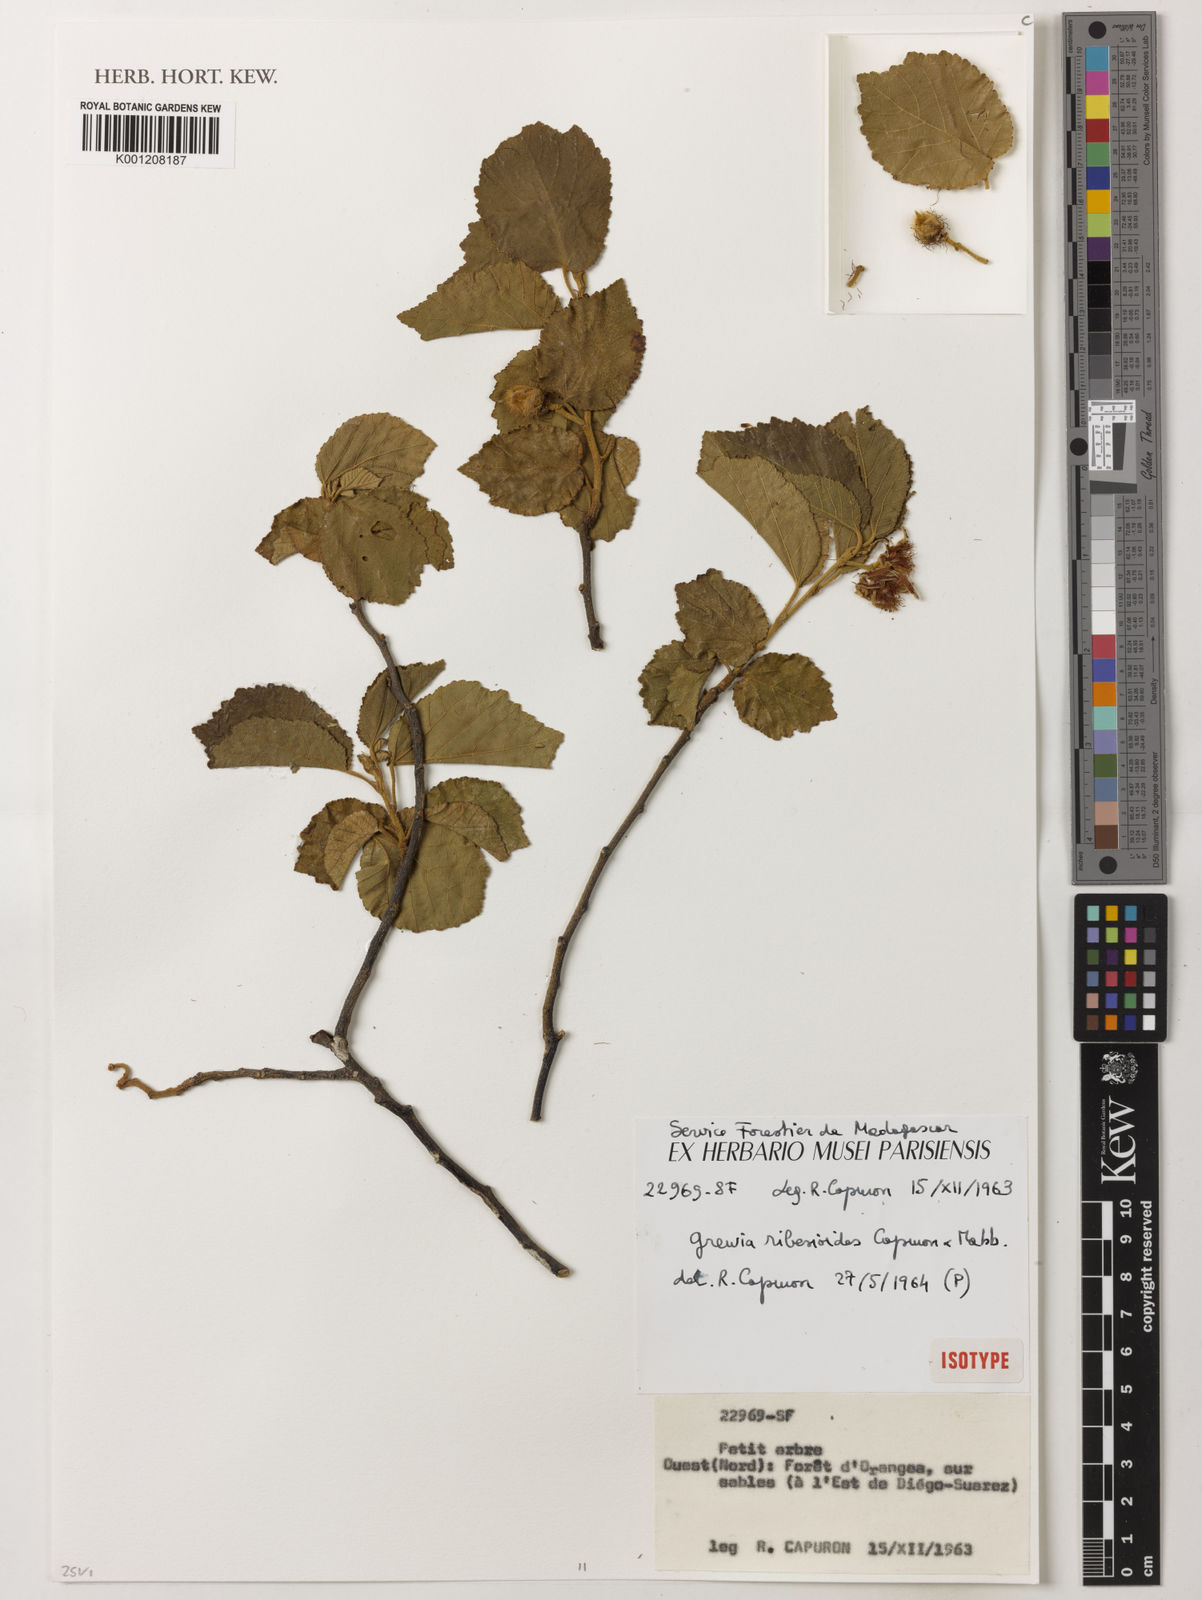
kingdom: Plantae
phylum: Tracheophyta
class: Magnoliopsida
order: Malvales
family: Malvaceae
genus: Grewia
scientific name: Grewia ribesioides
